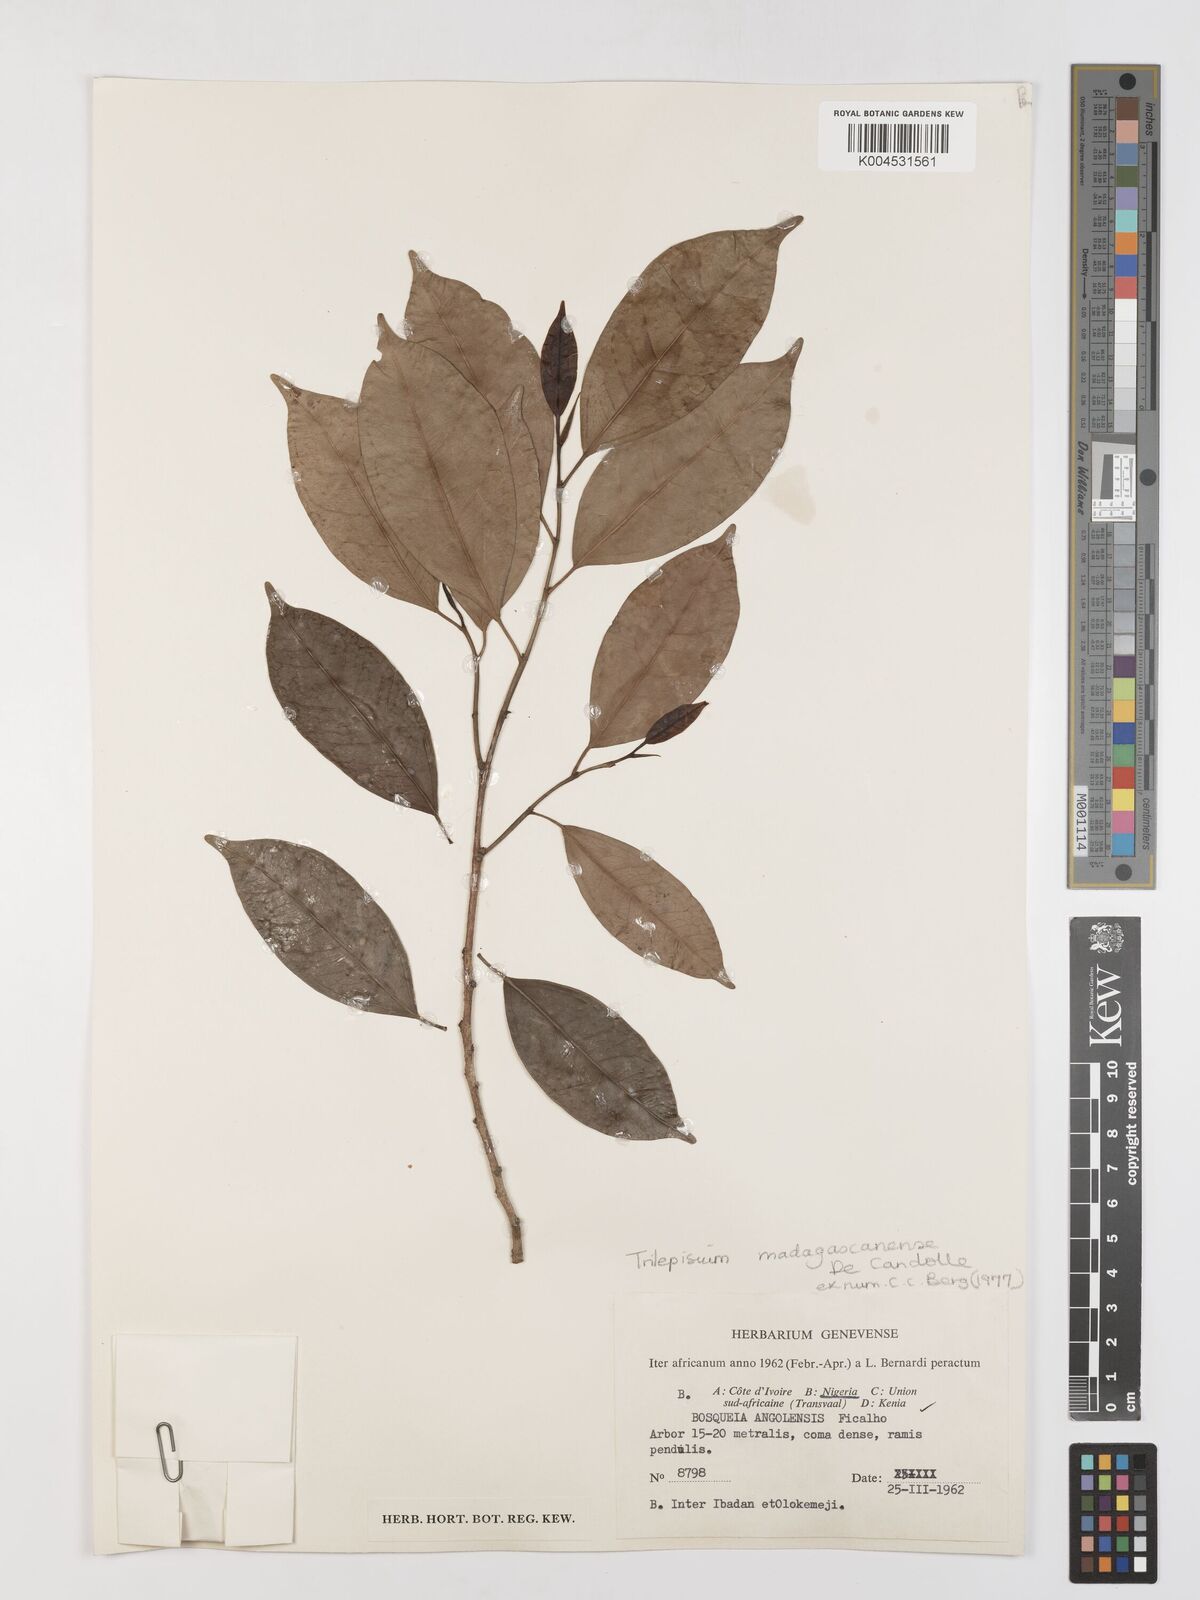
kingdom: Plantae
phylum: Tracheophyta
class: Magnoliopsida
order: Rosales
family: Moraceae
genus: Trilepisium
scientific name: Trilepisium madagascariense
